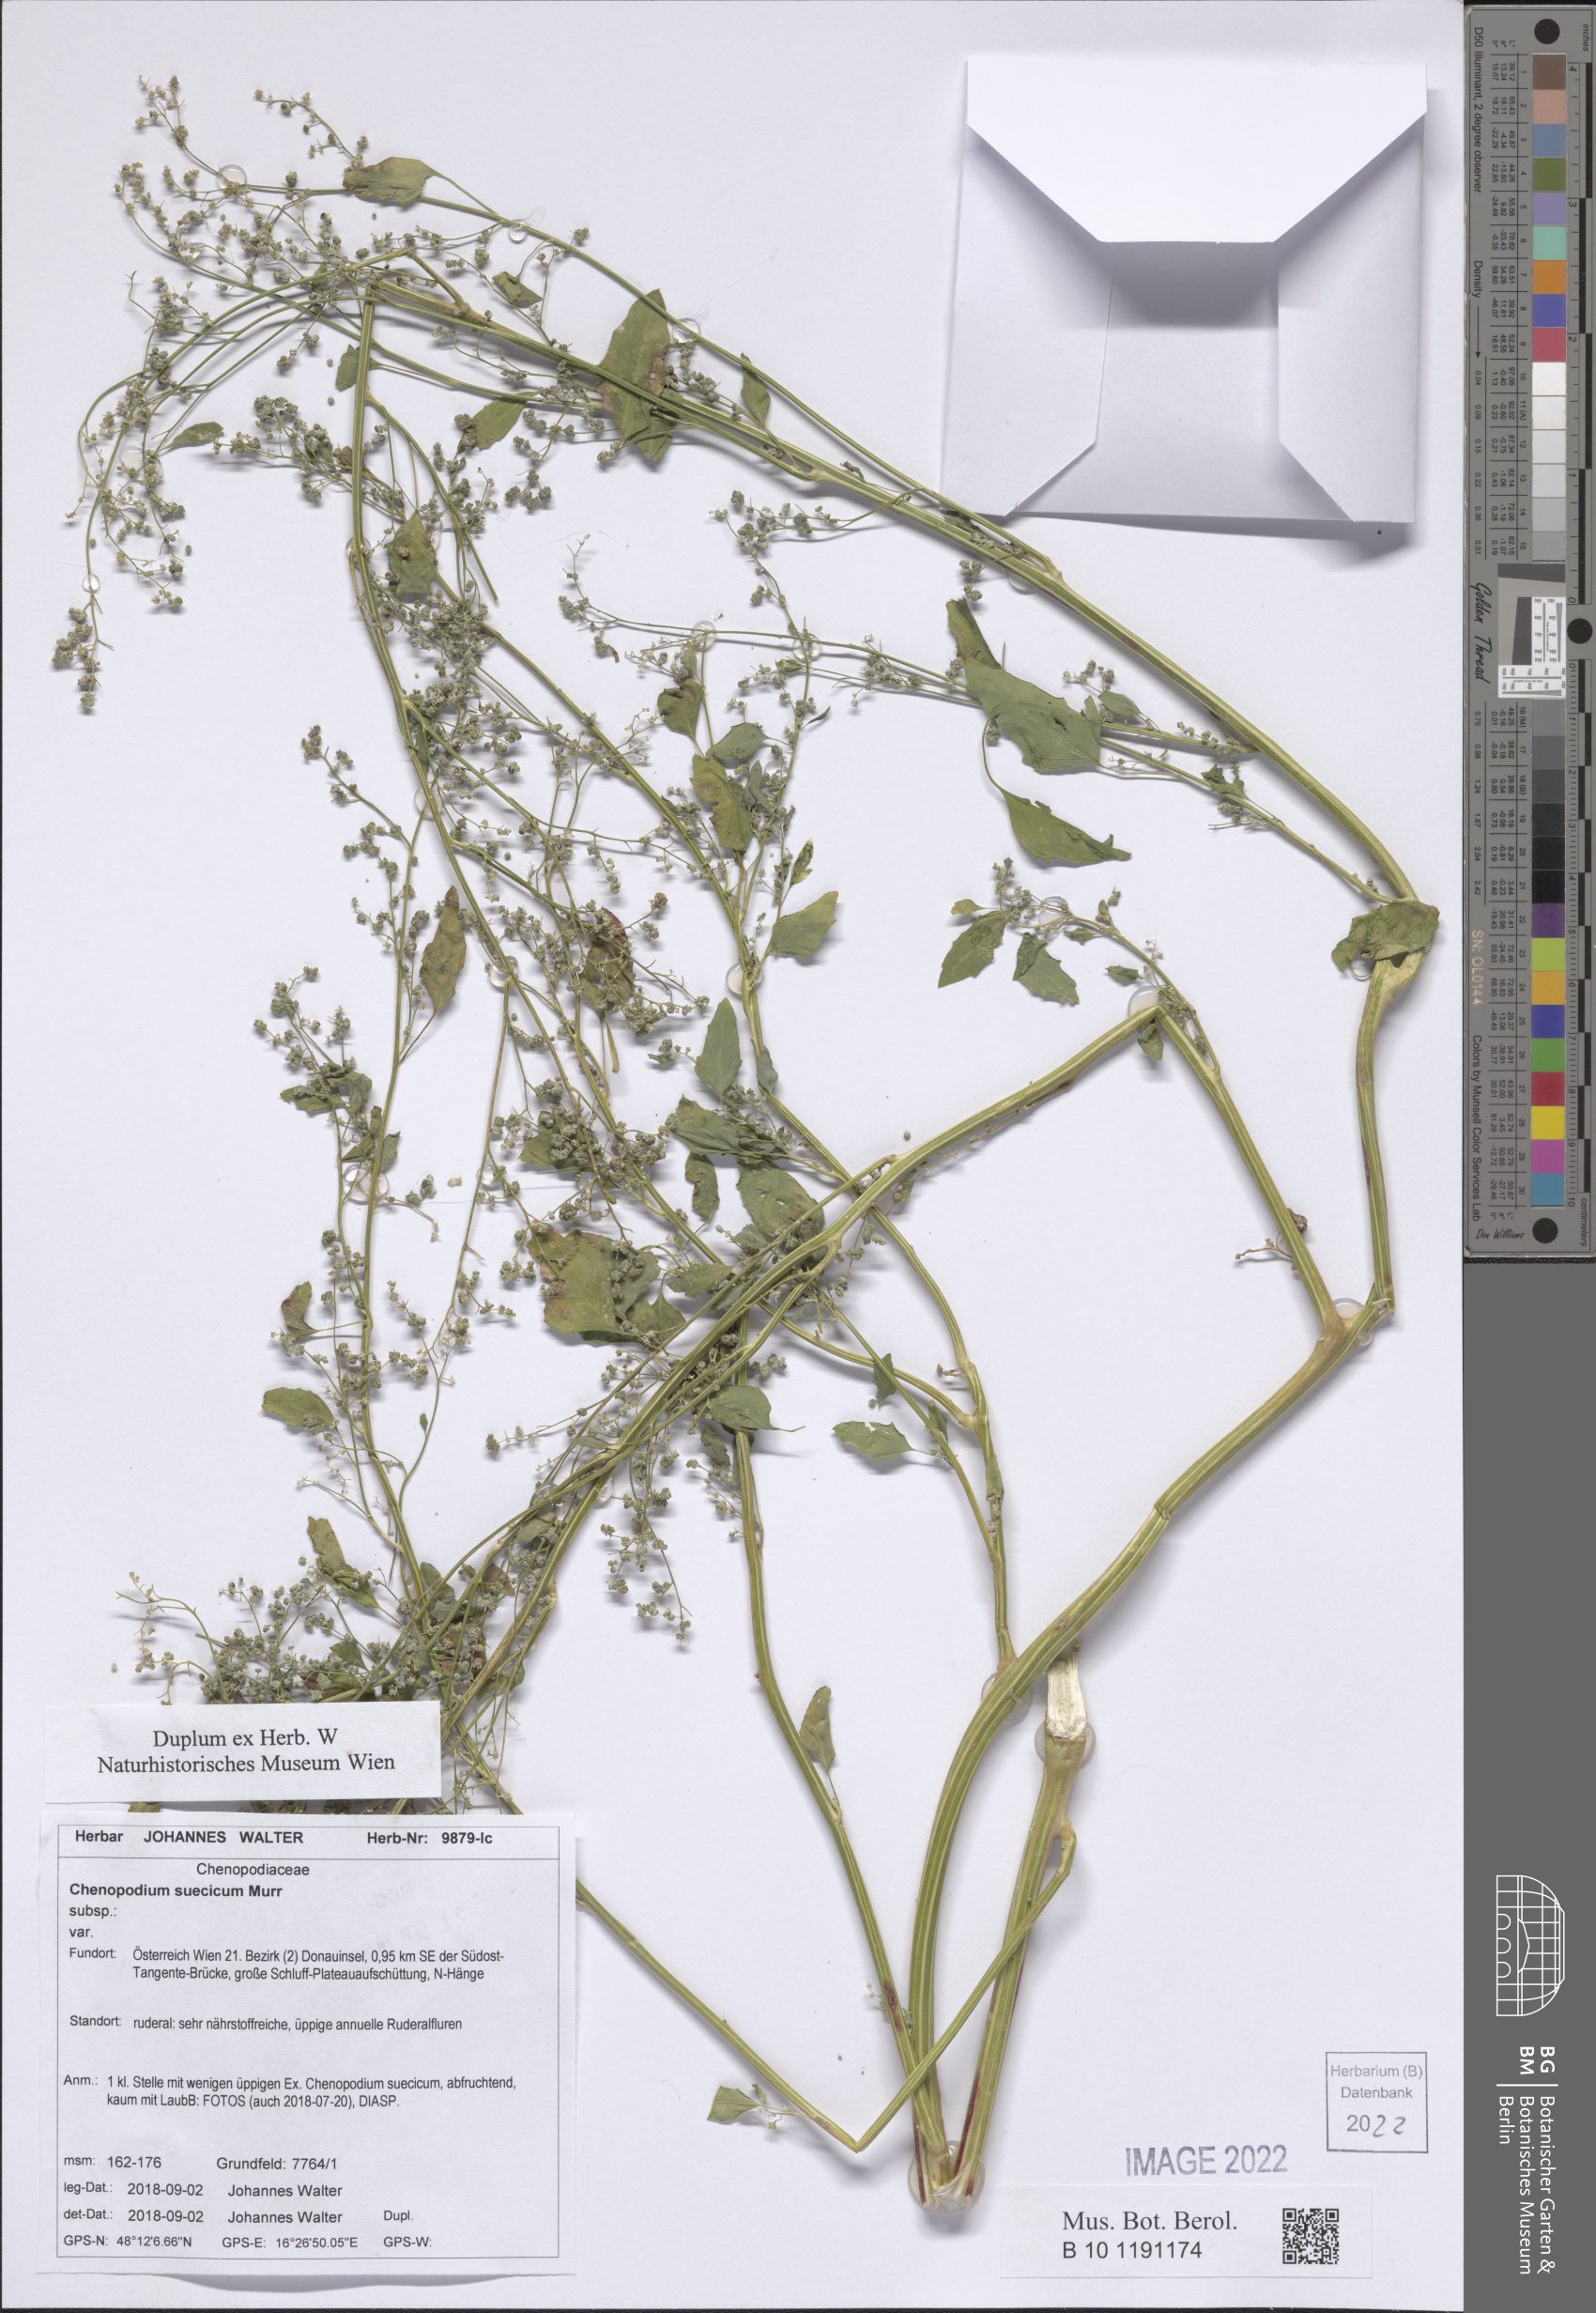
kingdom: Plantae
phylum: Tracheophyta
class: Magnoliopsida
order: Caryophyllales
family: Amaranthaceae
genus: Chenopodium
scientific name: Chenopodium suecicum
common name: Swedish goosefoot
